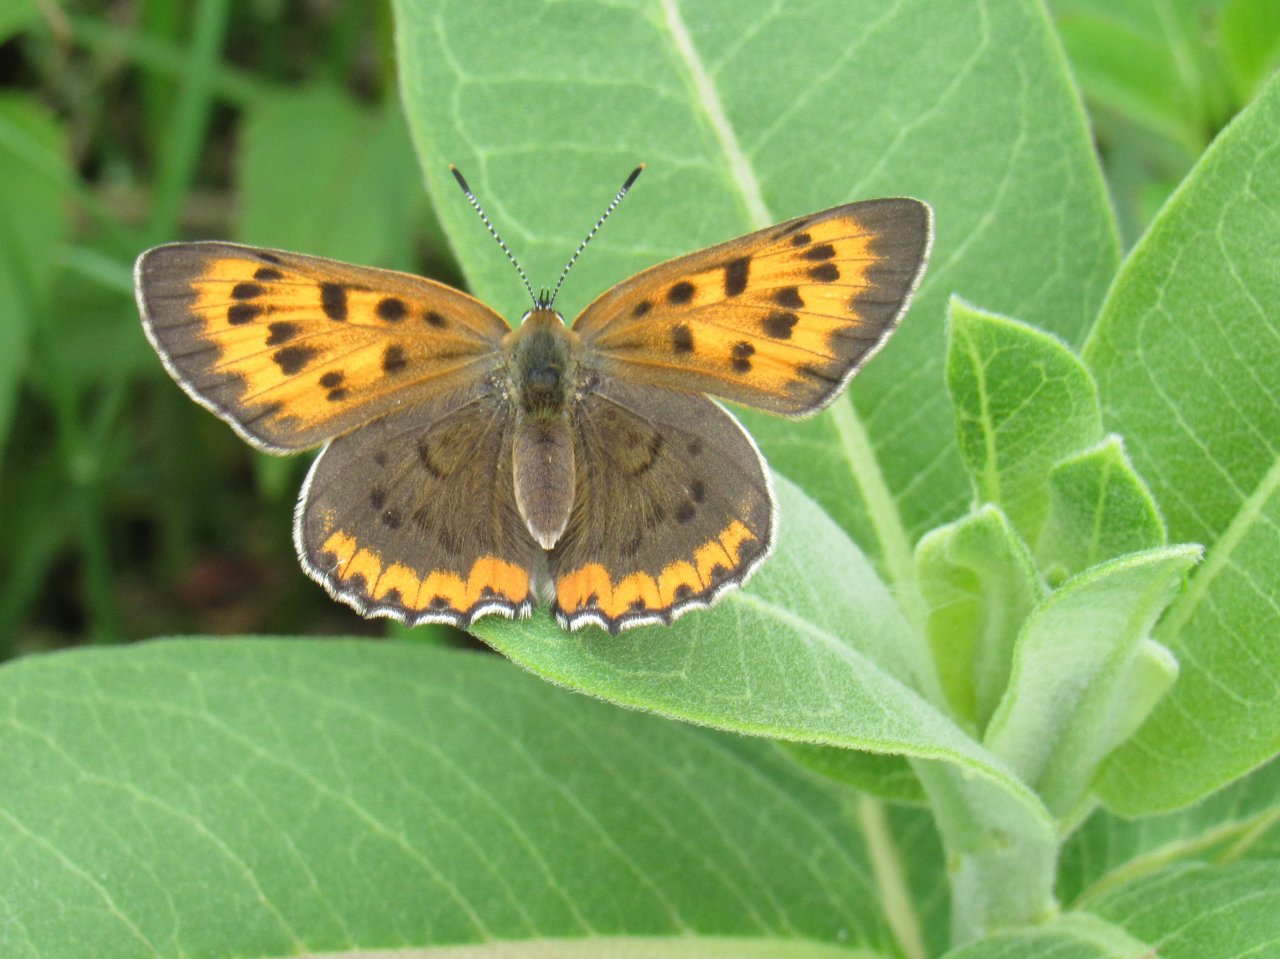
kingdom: Animalia
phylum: Arthropoda
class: Insecta
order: Lepidoptera
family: Sesiidae
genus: Sesia
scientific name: Sesia Lycaena hyllus
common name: Bronze Copper
